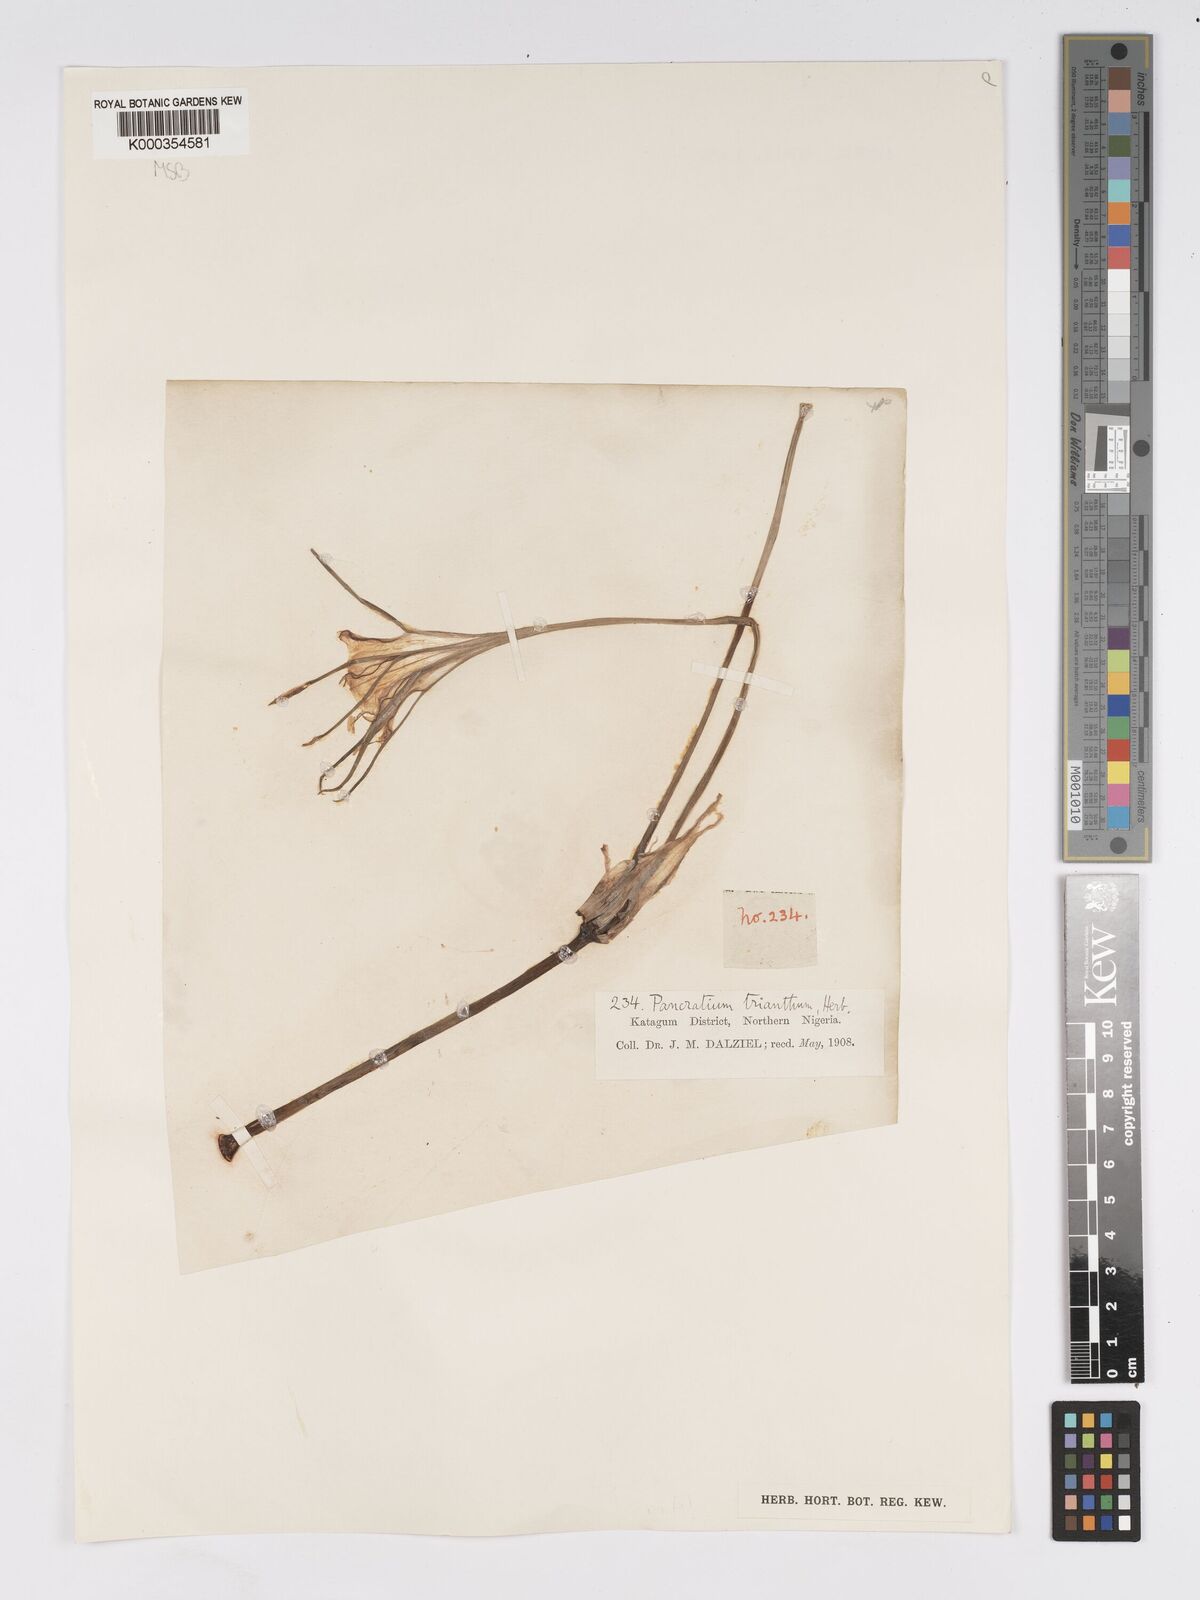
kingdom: Plantae
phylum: Tracheophyta
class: Liliopsida
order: Asparagales
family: Amaryllidaceae
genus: Pancratium
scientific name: Pancratium trianthum
